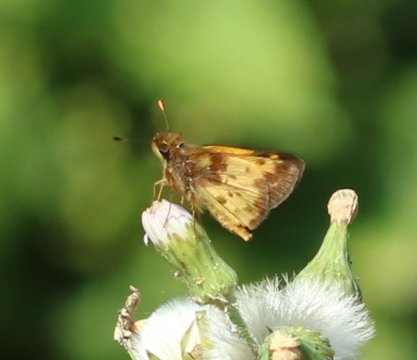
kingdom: Animalia
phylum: Arthropoda
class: Insecta
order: Lepidoptera
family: Hesperiidae
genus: Lon
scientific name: Lon zabulon
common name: Zabulon Skipper
